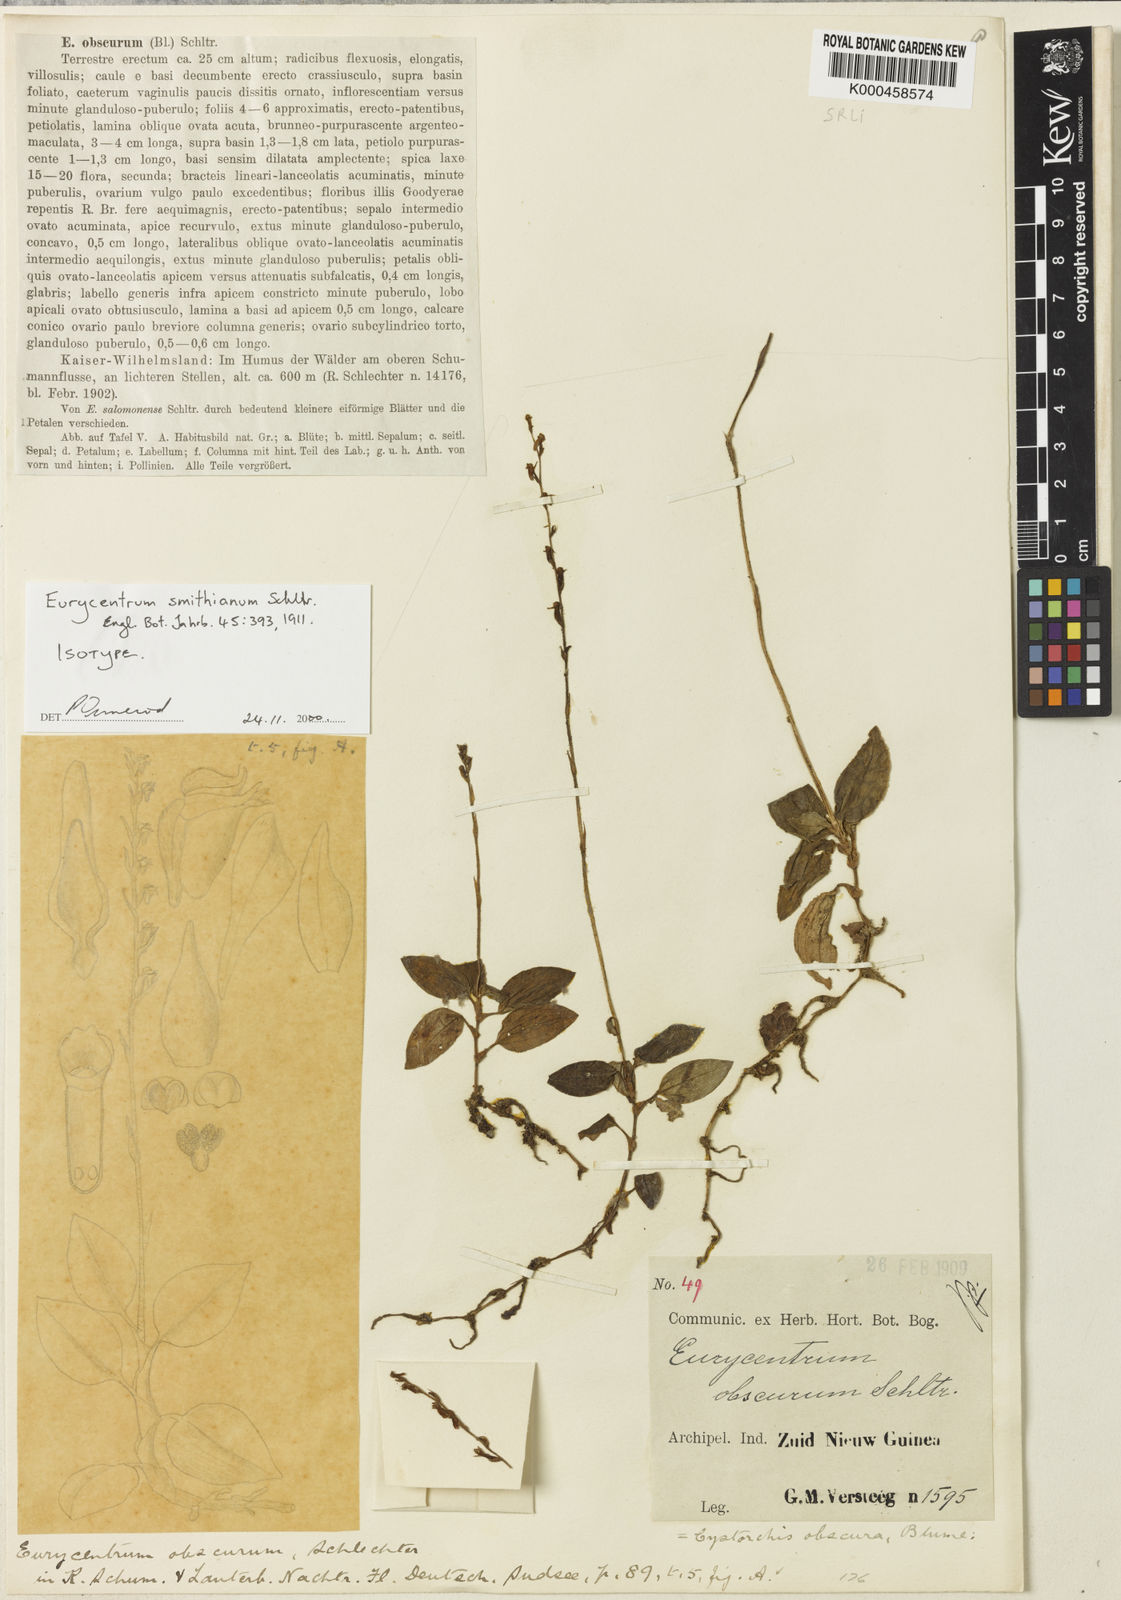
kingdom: Plantae
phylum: Tracheophyta
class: Liliopsida
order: Asparagales
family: Orchidaceae
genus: Eurycentrum
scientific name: Eurycentrum obscurum
